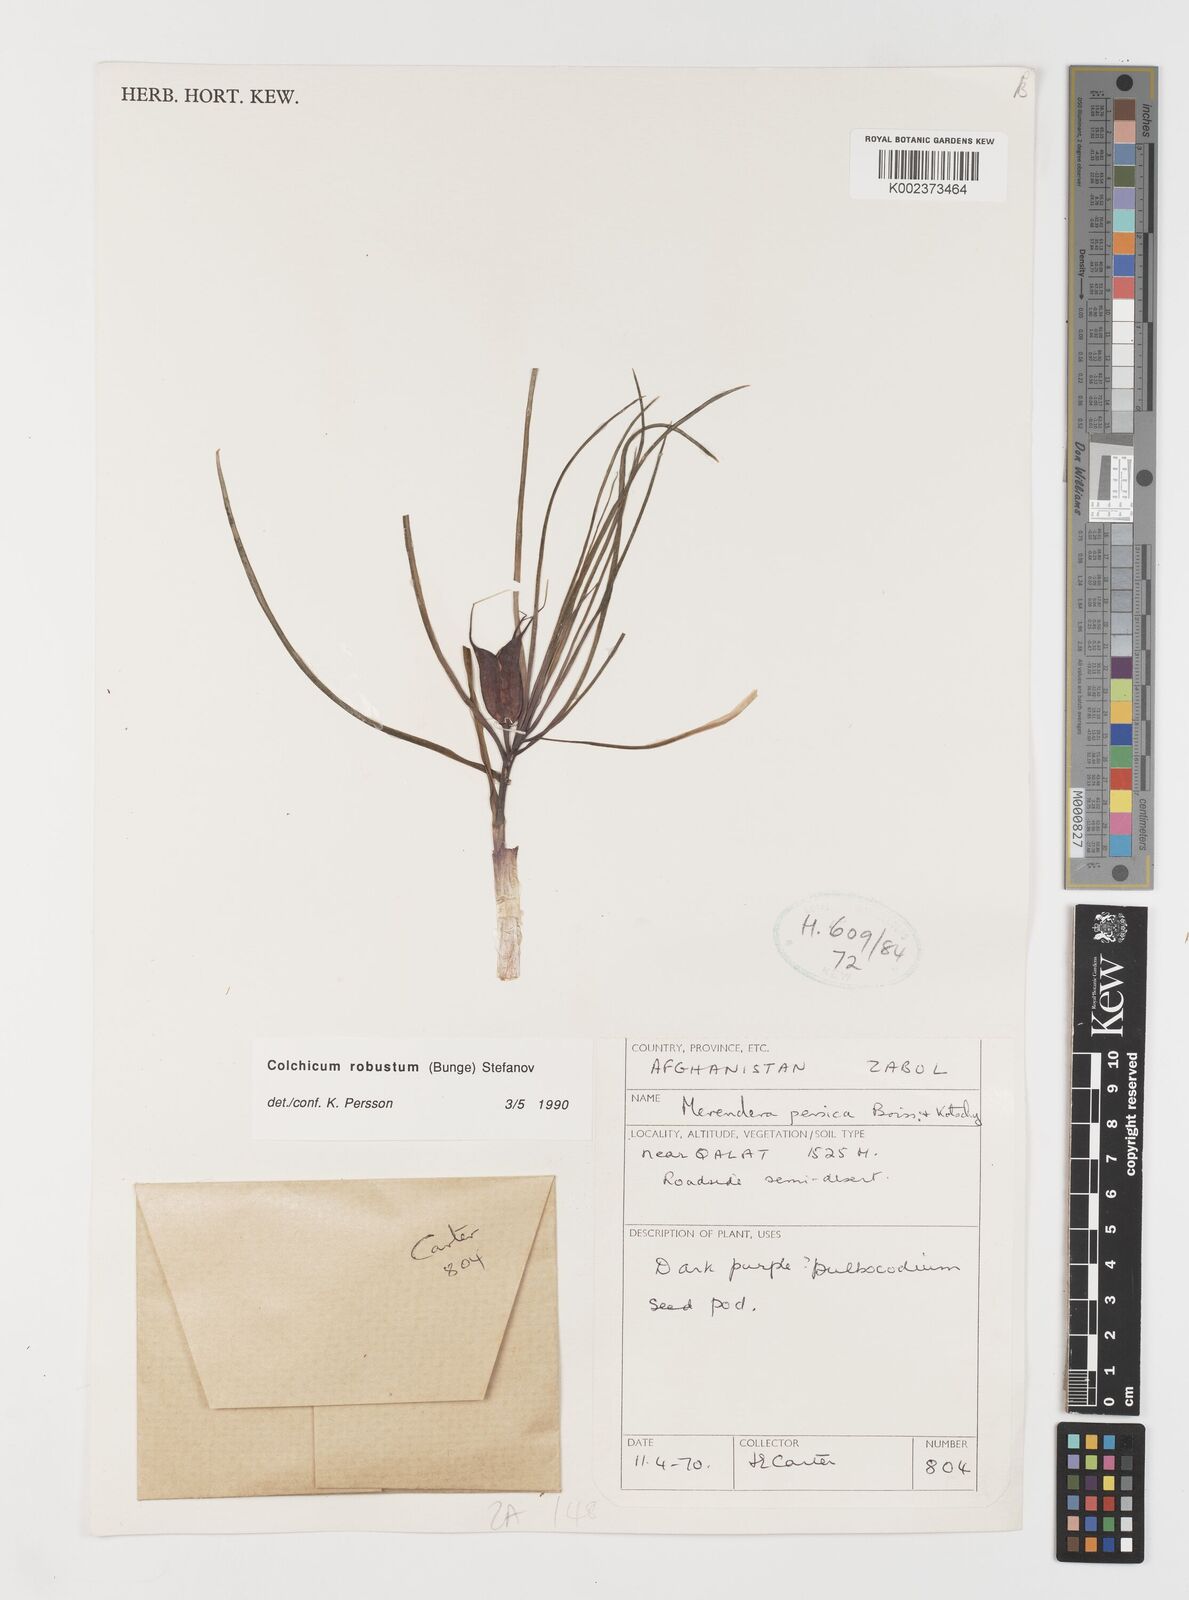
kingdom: Plantae
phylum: Tracheophyta
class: Liliopsida
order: Liliales
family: Colchicaceae
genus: Colchicum
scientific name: Colchicum robustum
